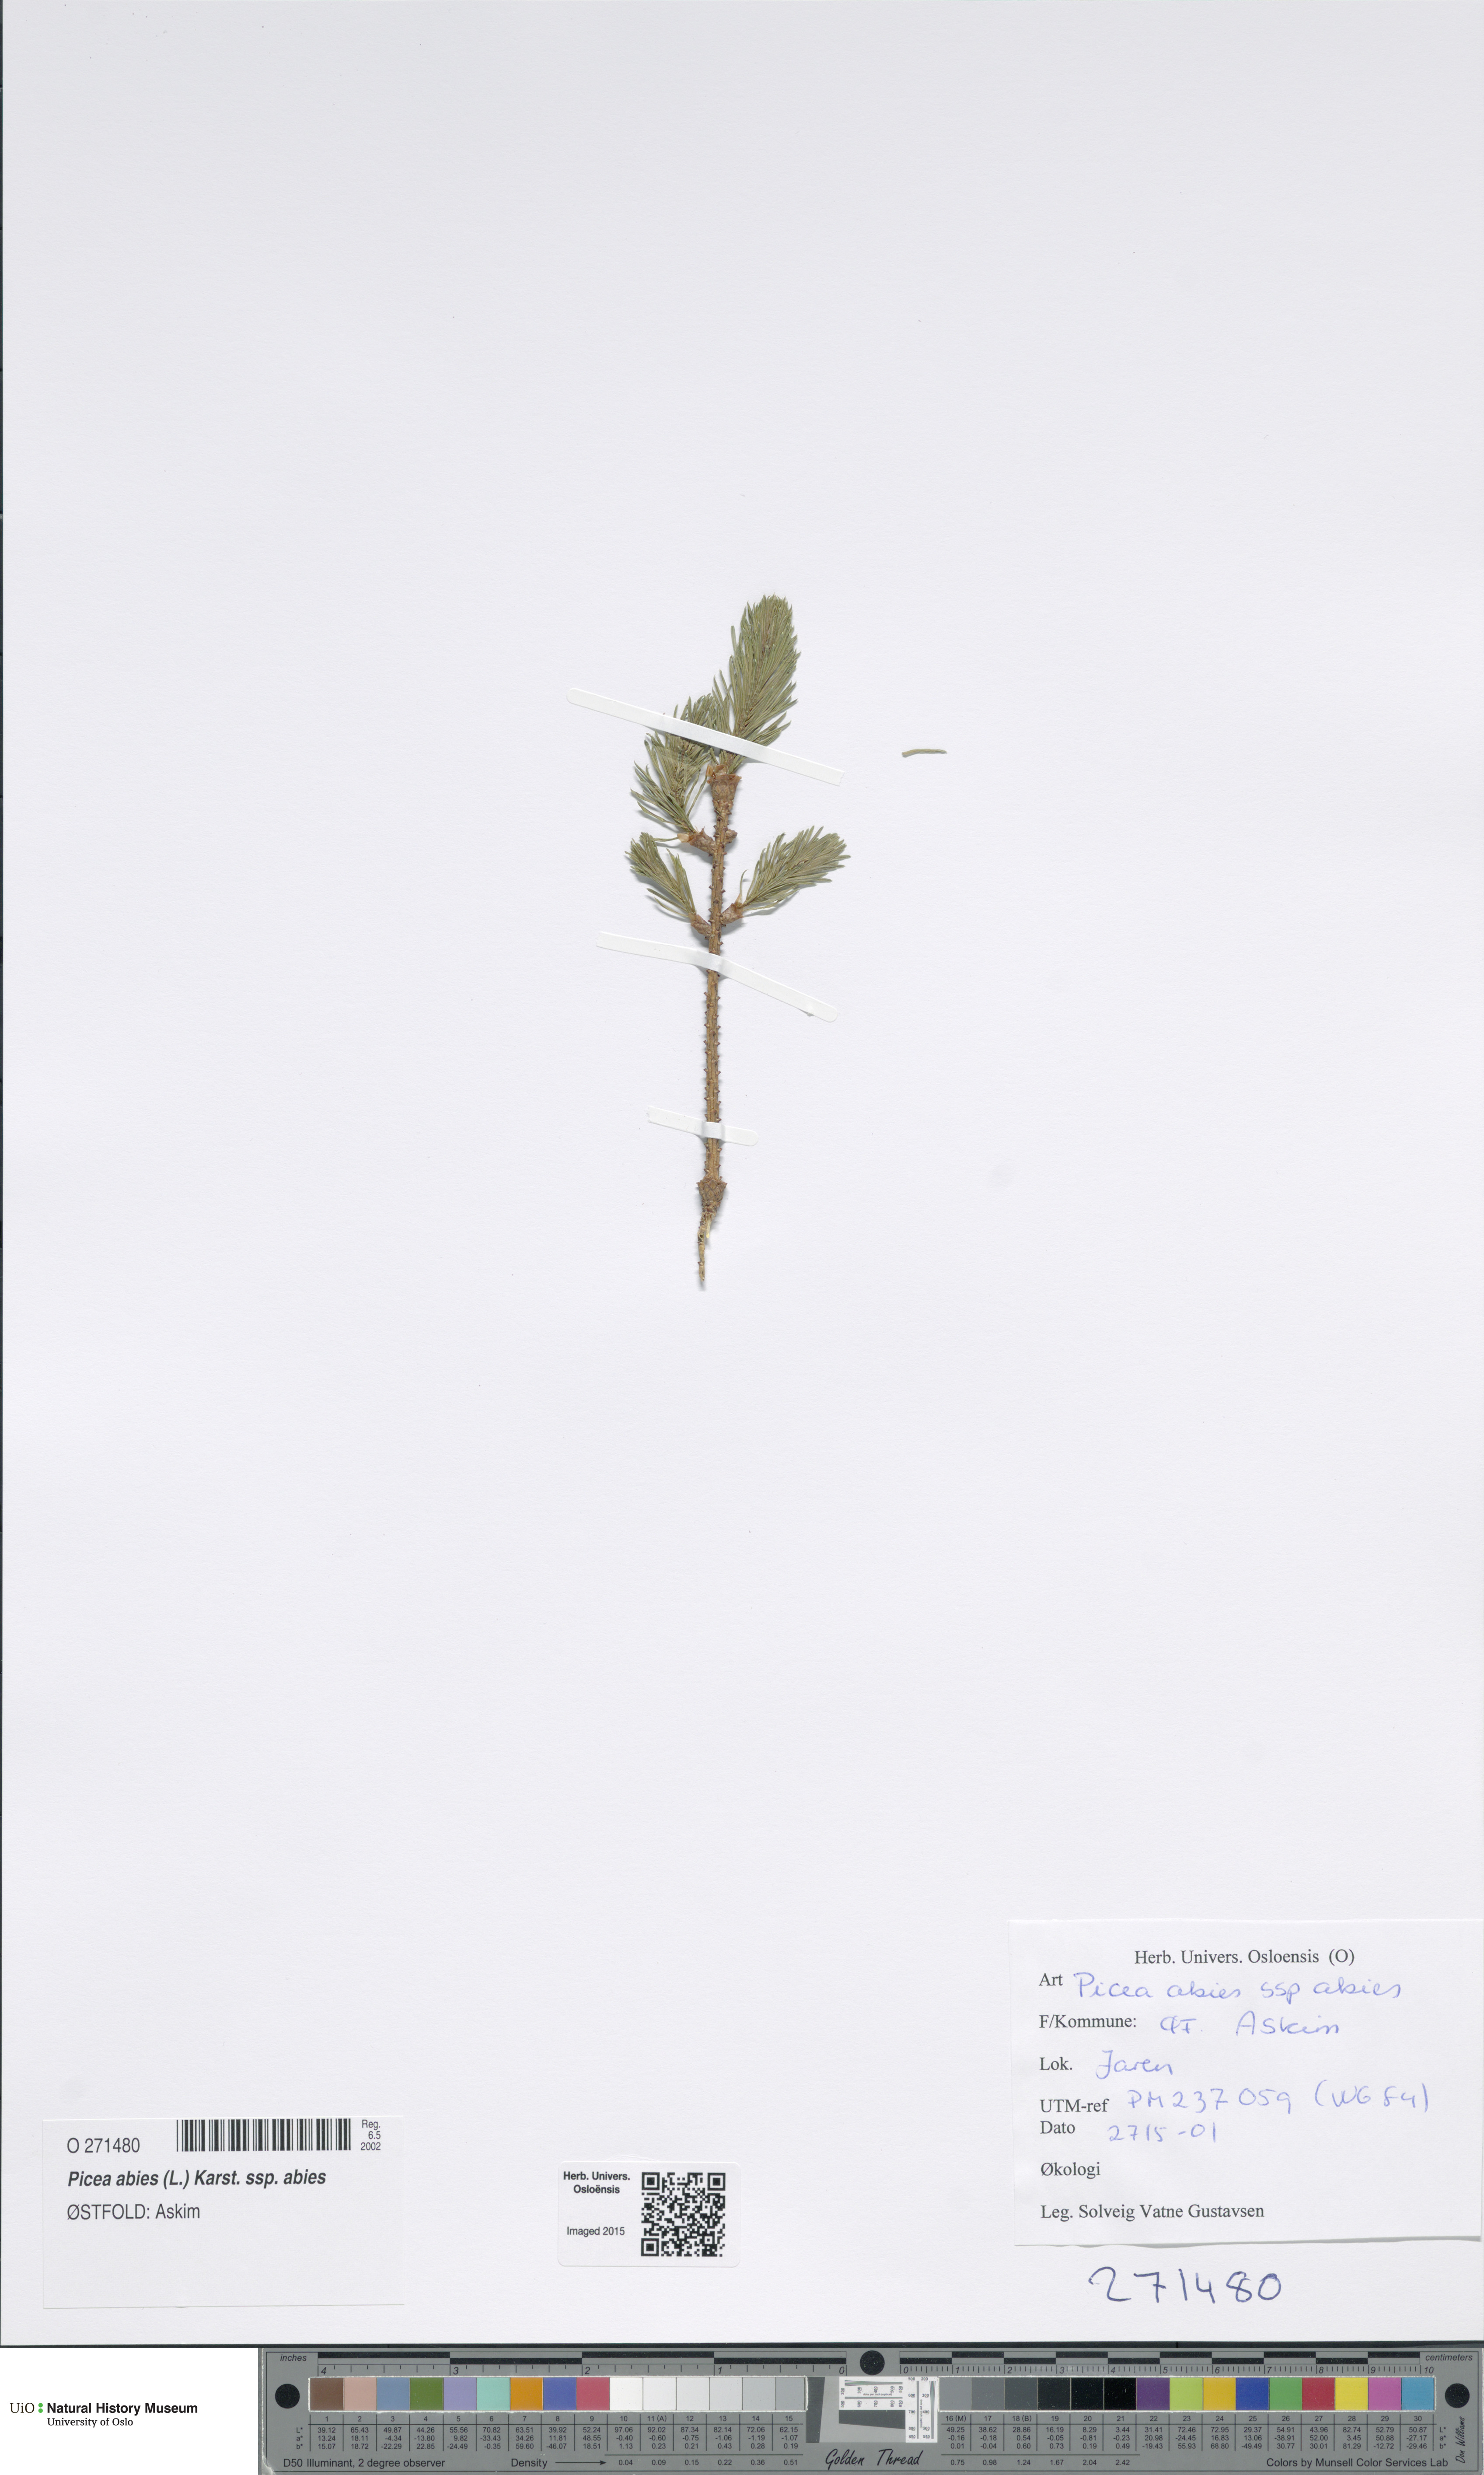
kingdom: Plantae
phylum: Tracheophyta
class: Pinopsida
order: Pinales
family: Pinaceae
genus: Picea
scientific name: Picea abies
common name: Norway spruce
